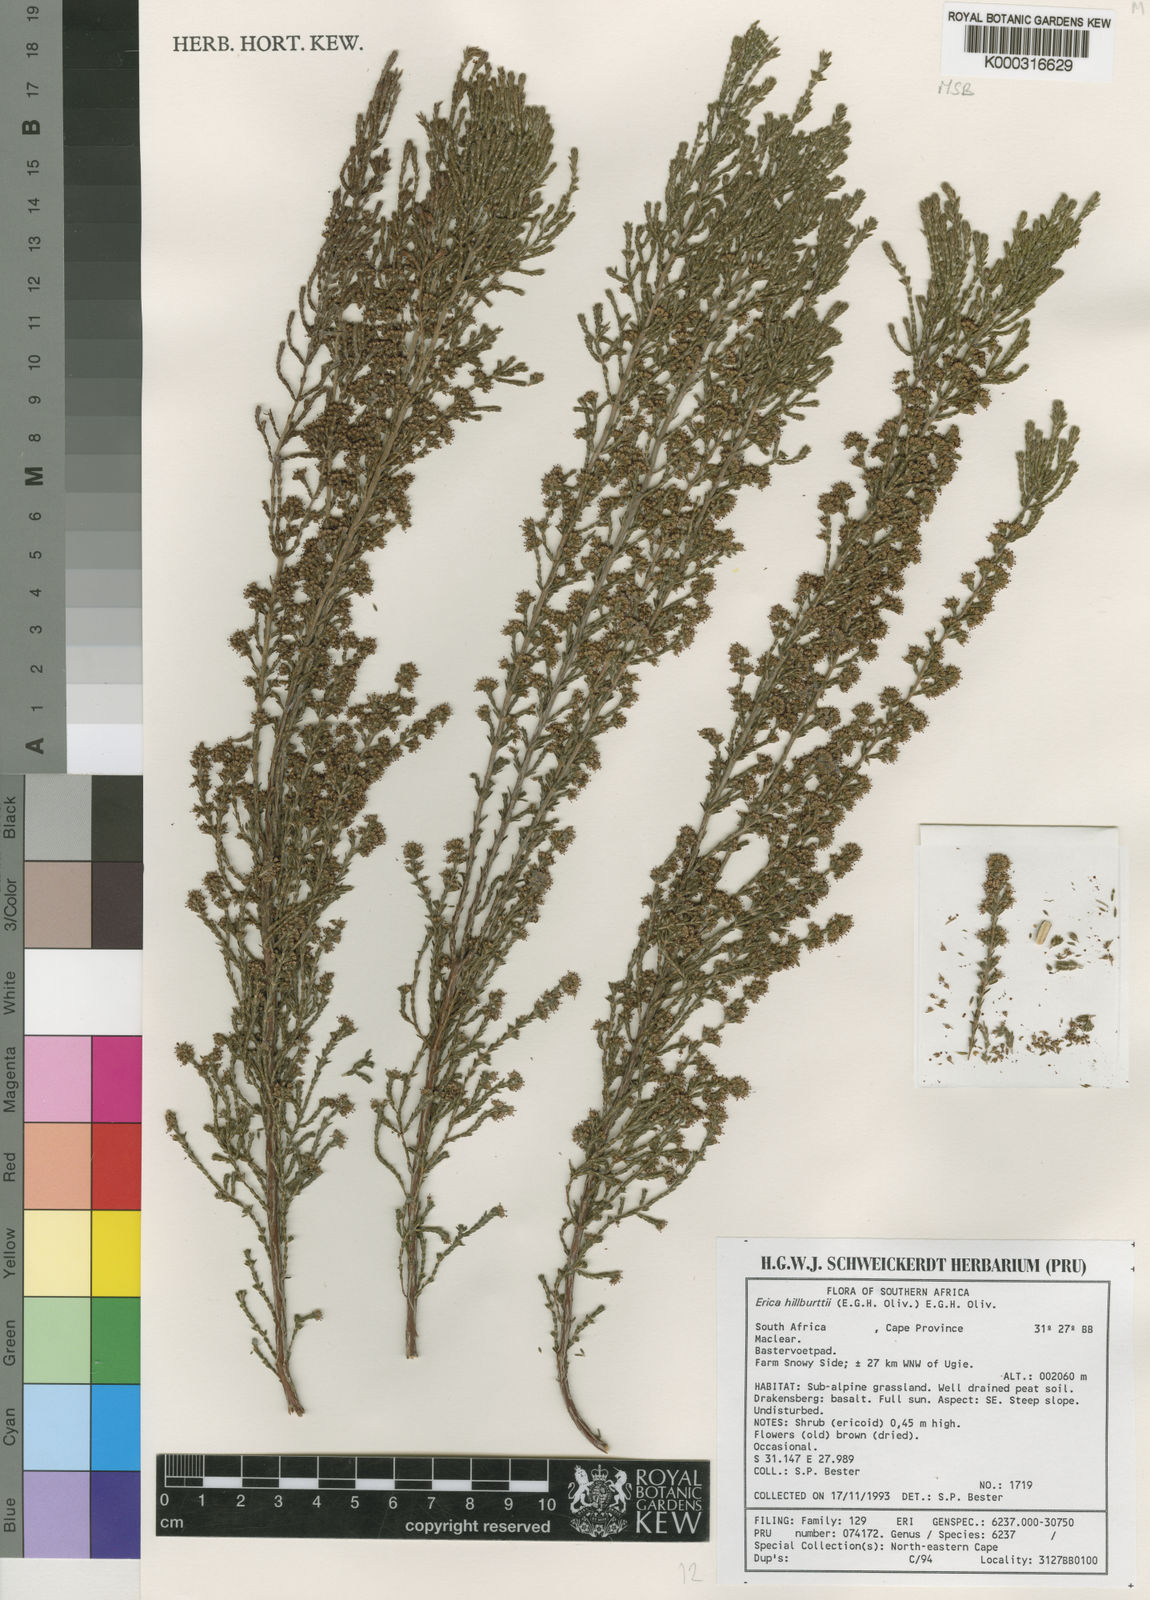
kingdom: Plantae
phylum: Tracheophyta
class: Magnoliopsida
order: Ericales
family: Ericaceae
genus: Erica
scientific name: Erica hillburttii
